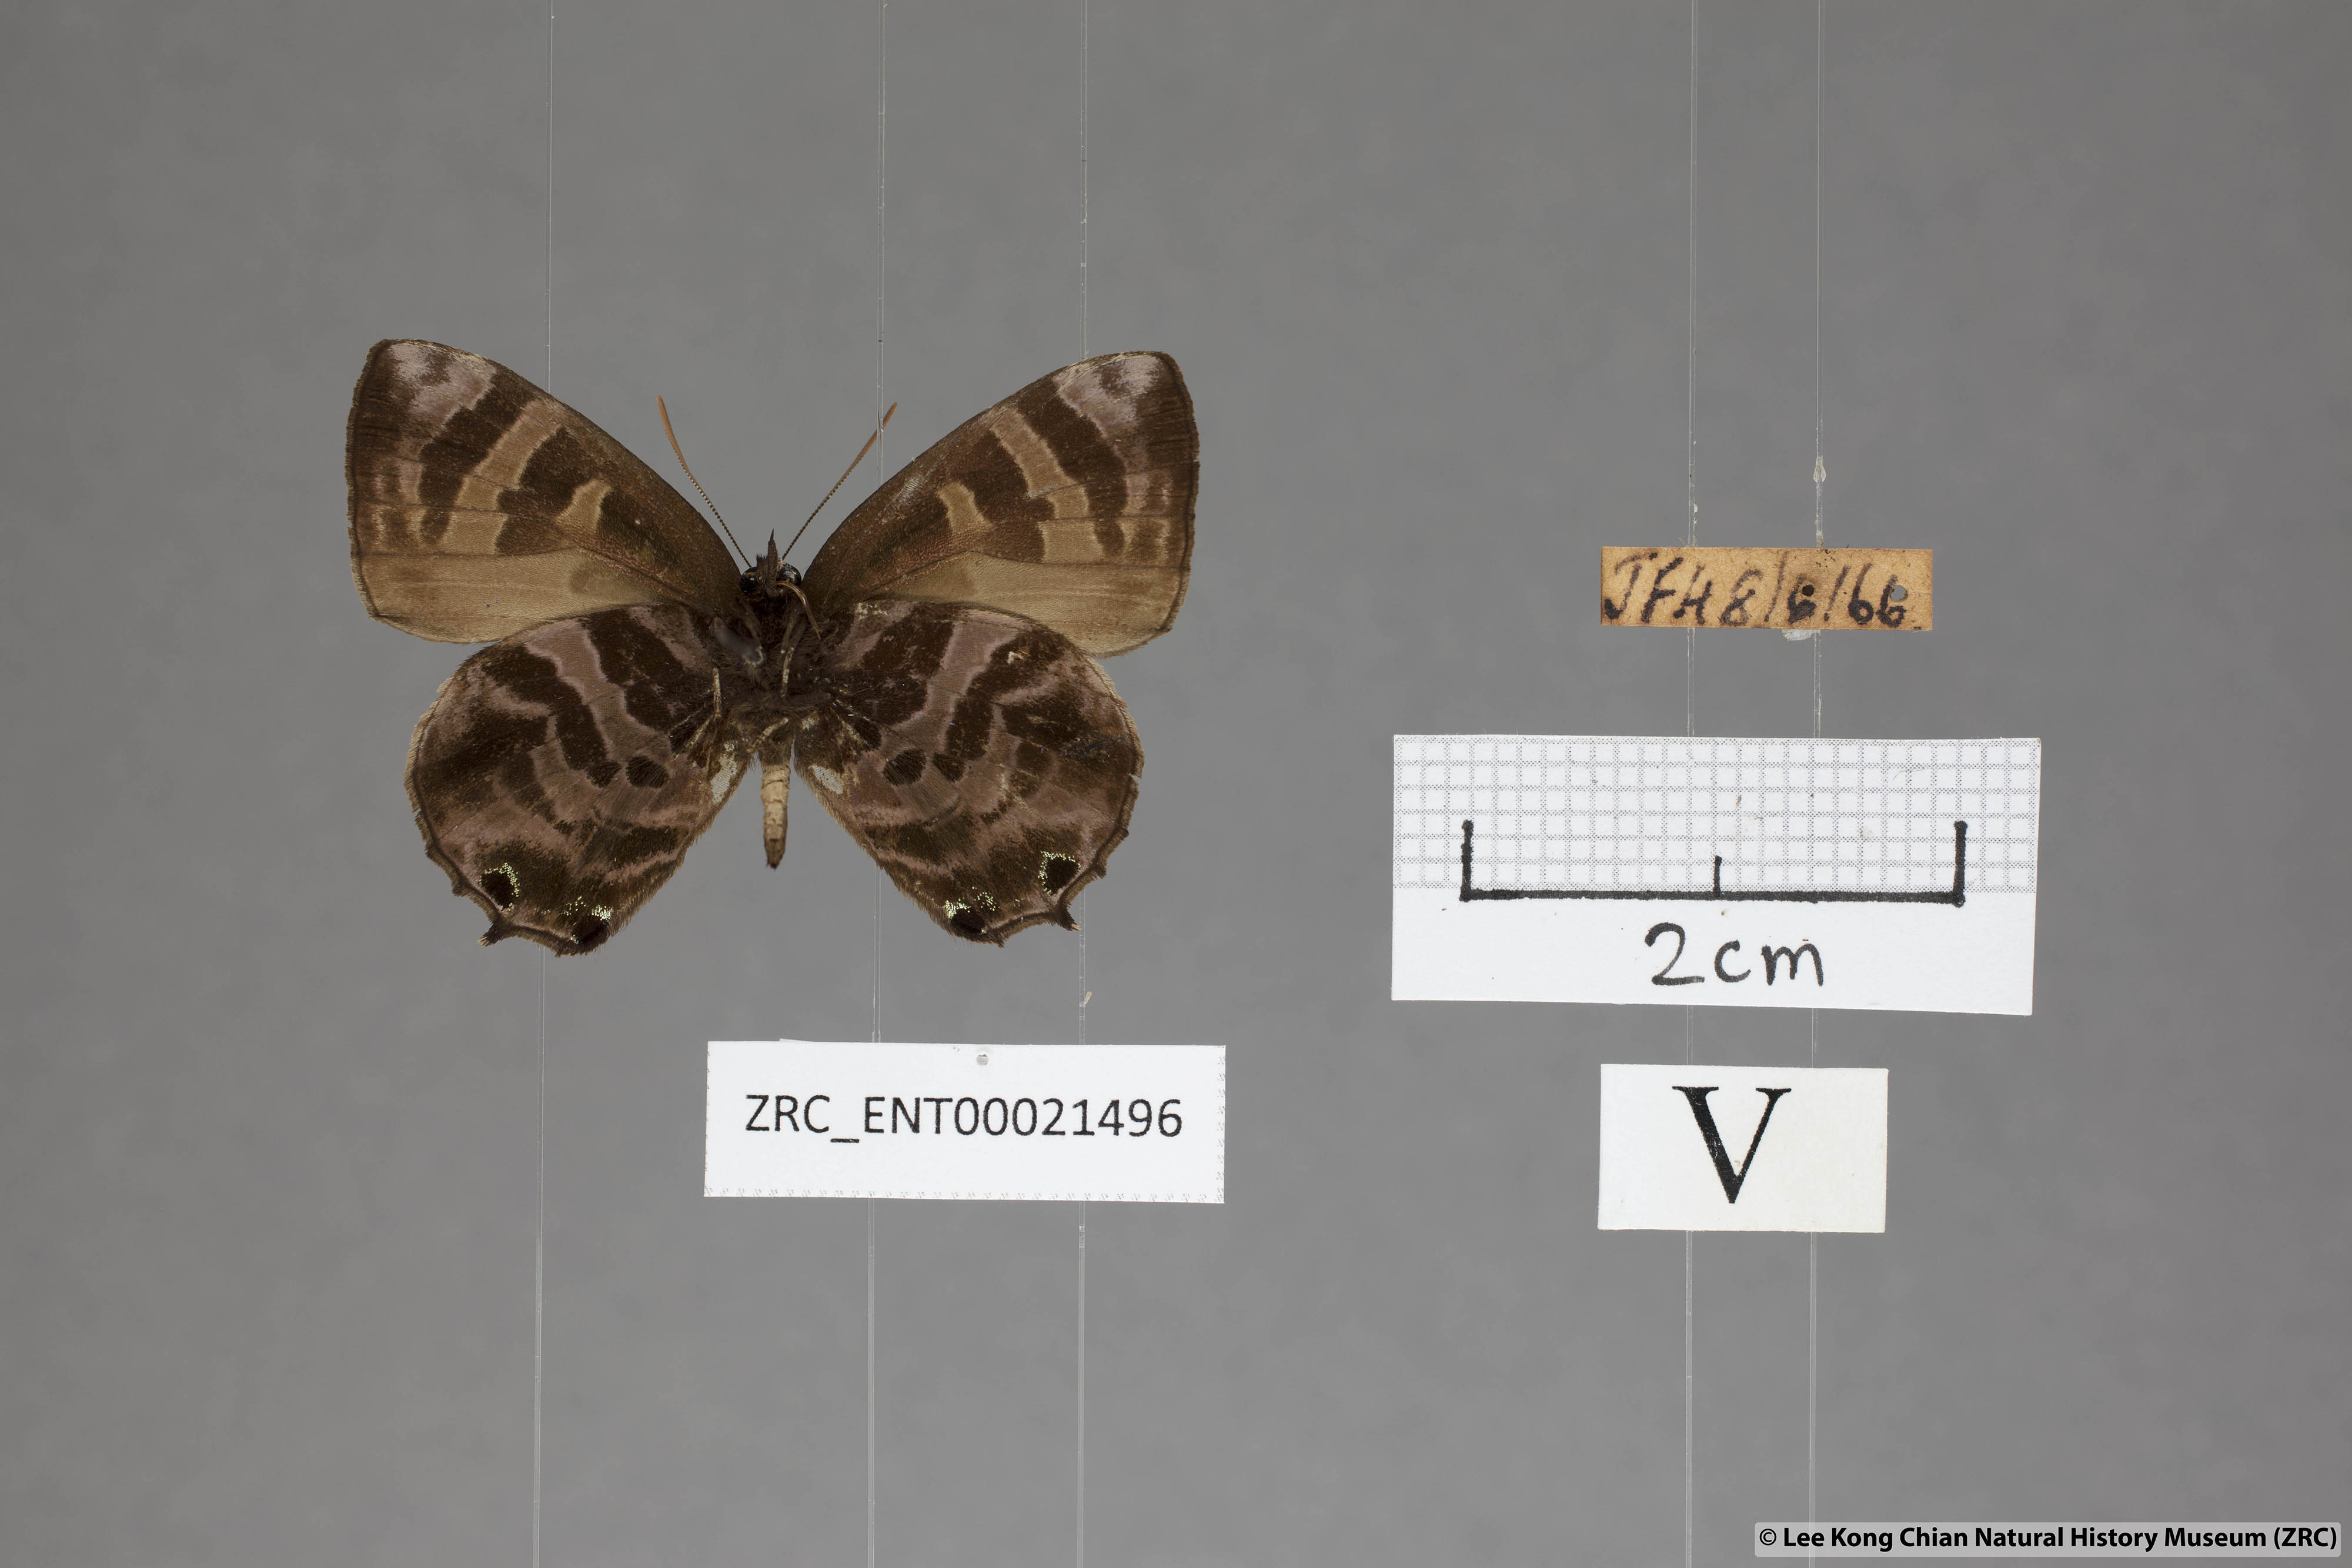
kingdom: Animalia
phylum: Arthropoda
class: Insecta
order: Lepidoptera
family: Lycaenidae
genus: Flos
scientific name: Flos
